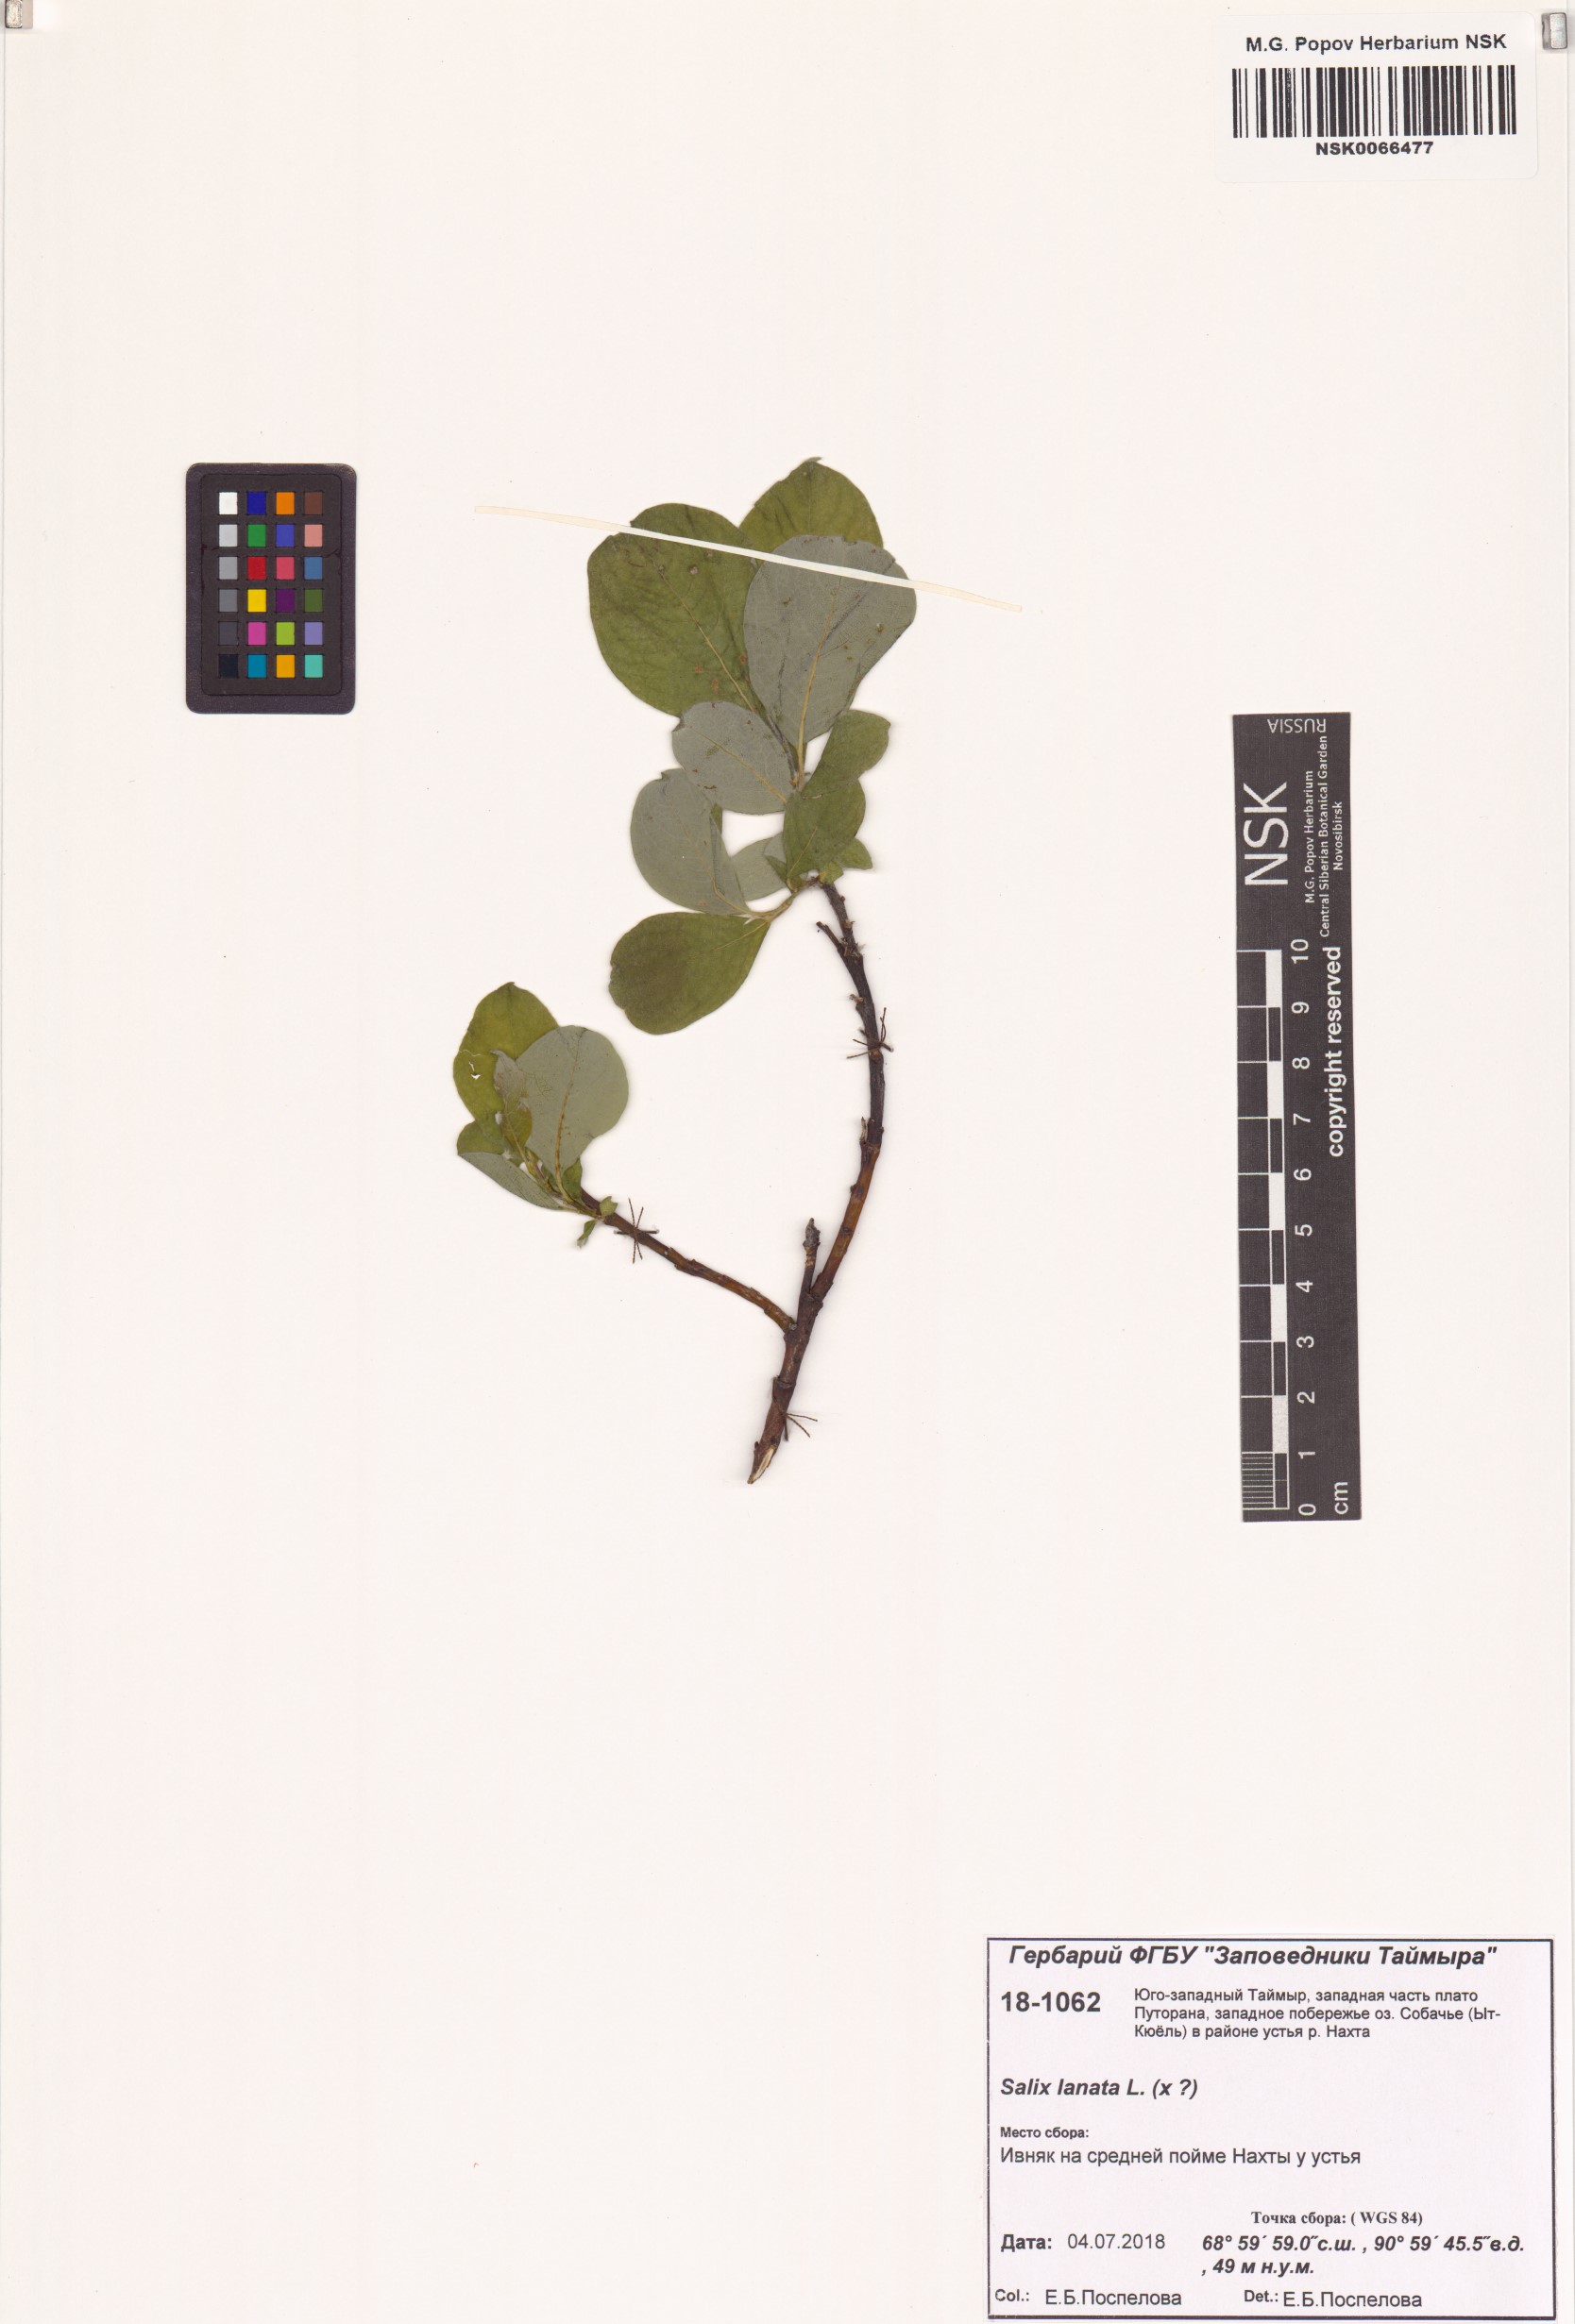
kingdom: Plantae
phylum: Tracheophyta
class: Magnoliopsida
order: Malpighiales
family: Salicaceae
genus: Salix
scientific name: Salix lanata
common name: Woolly willow
